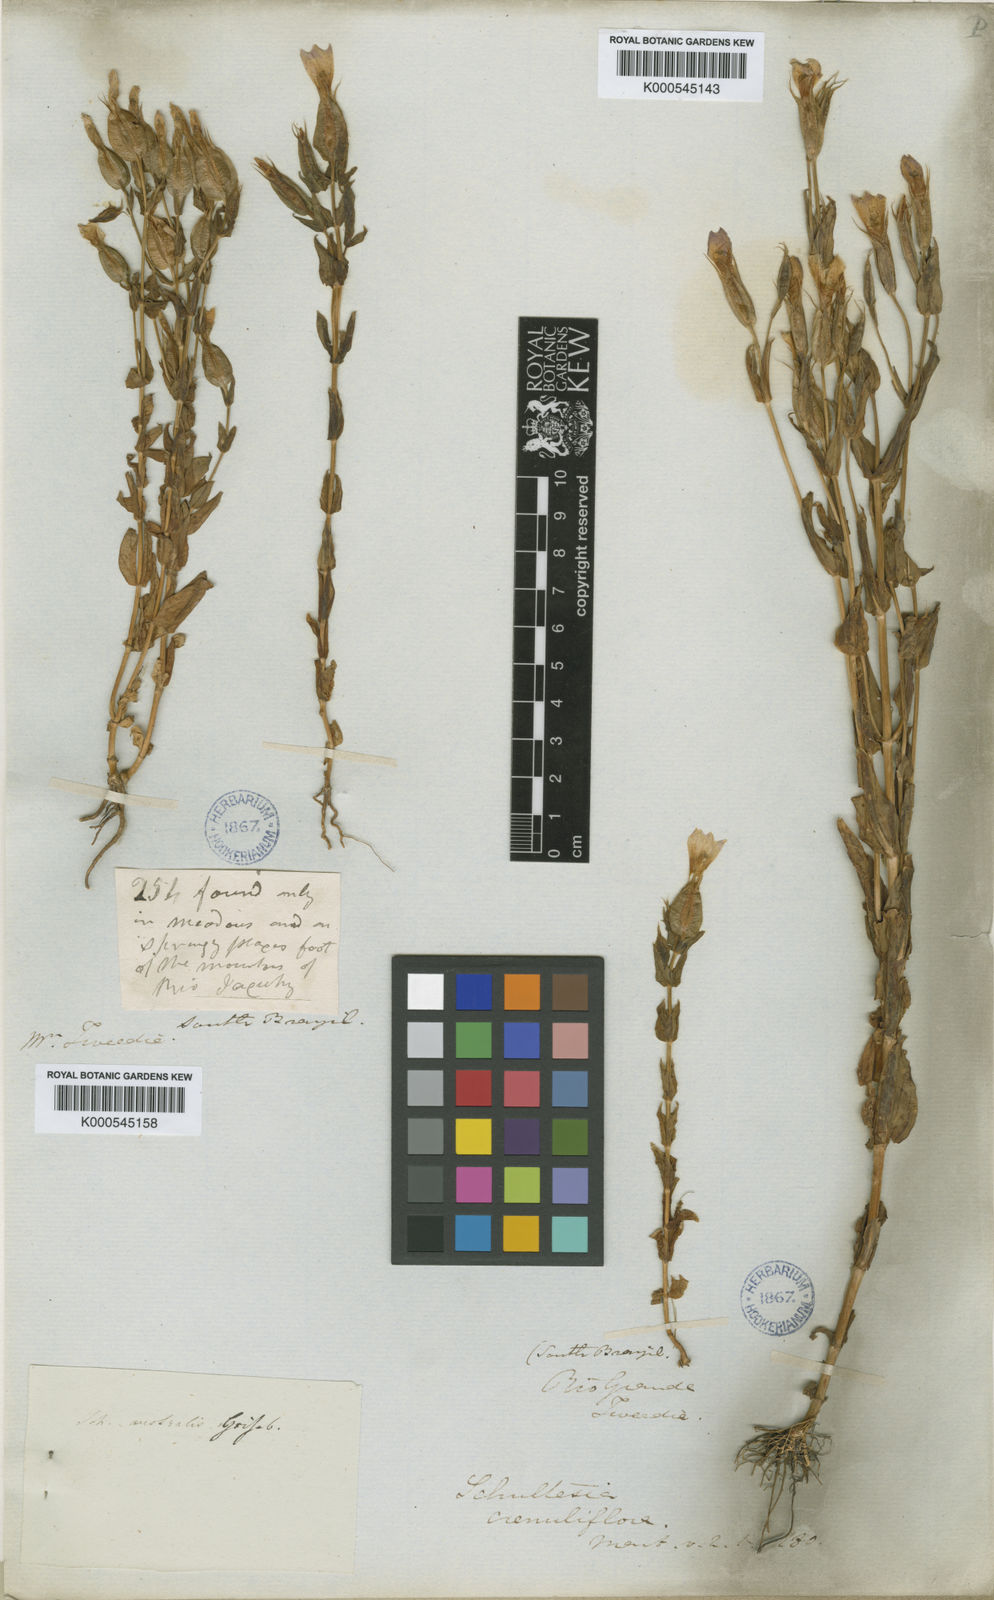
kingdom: Plantae
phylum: Tracheophyta
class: Magnoliopsida
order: Gentianales
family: Gentianaceae
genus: Schultesia
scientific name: Schultesia australis
